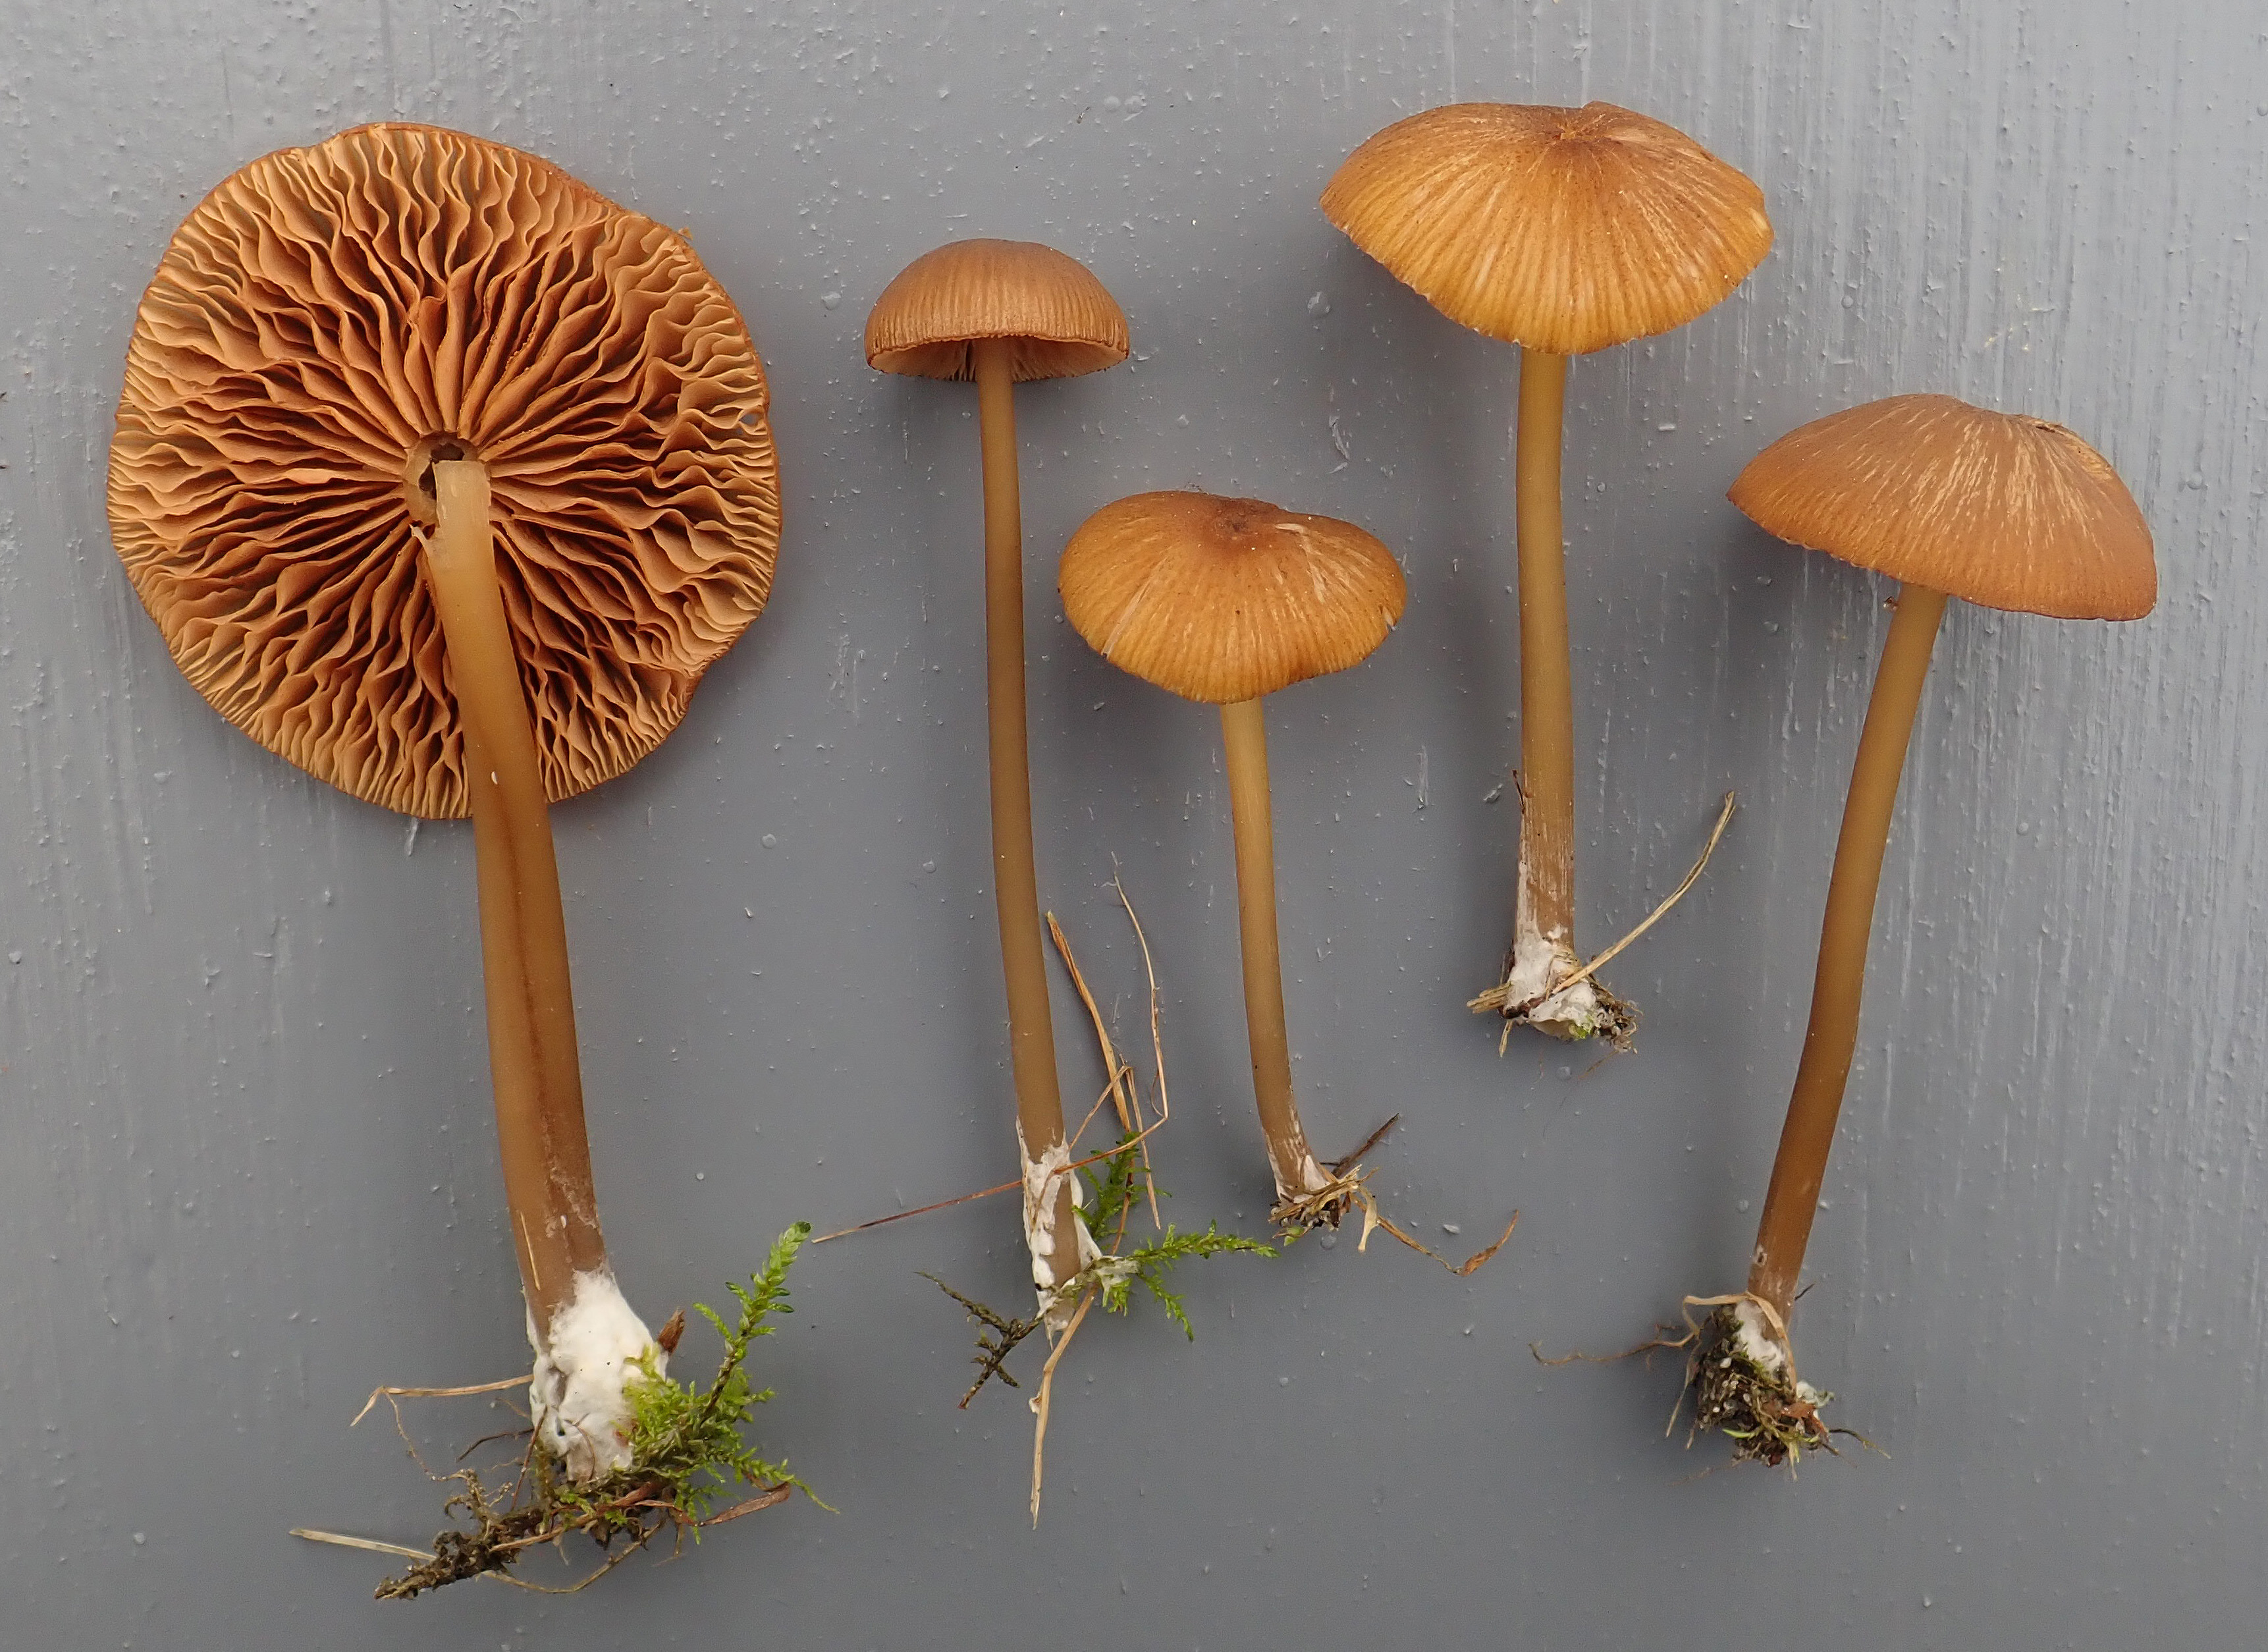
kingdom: Fungi
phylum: Basidiomycota
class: Agaricomycetes
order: Agaricales
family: Entolomataceae
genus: Entoloma
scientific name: Entoloma formosum
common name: Pretty pinkgill
